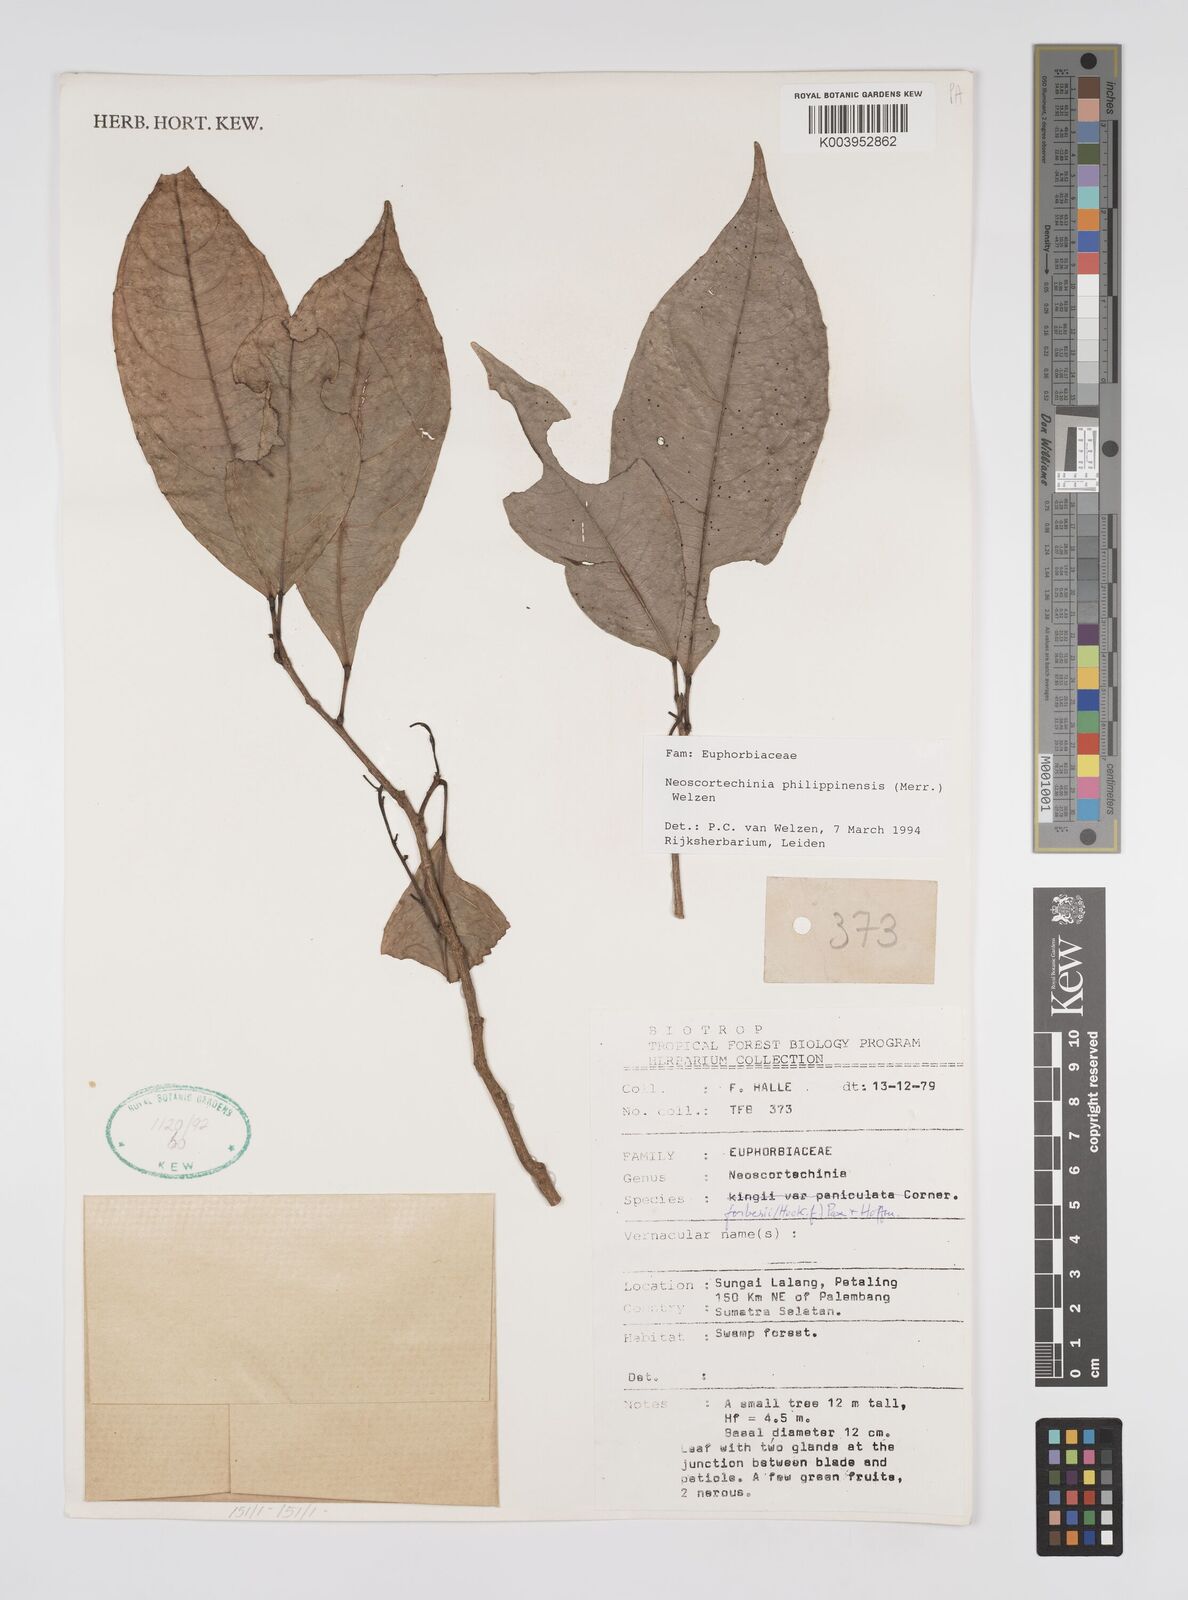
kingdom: Plantae
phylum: Tracheophyta
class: Magnoliopsida
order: Malpighiales
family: Euphorbiaceae
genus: Neoscortechinia
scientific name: Neoscortechinia philippinensis
